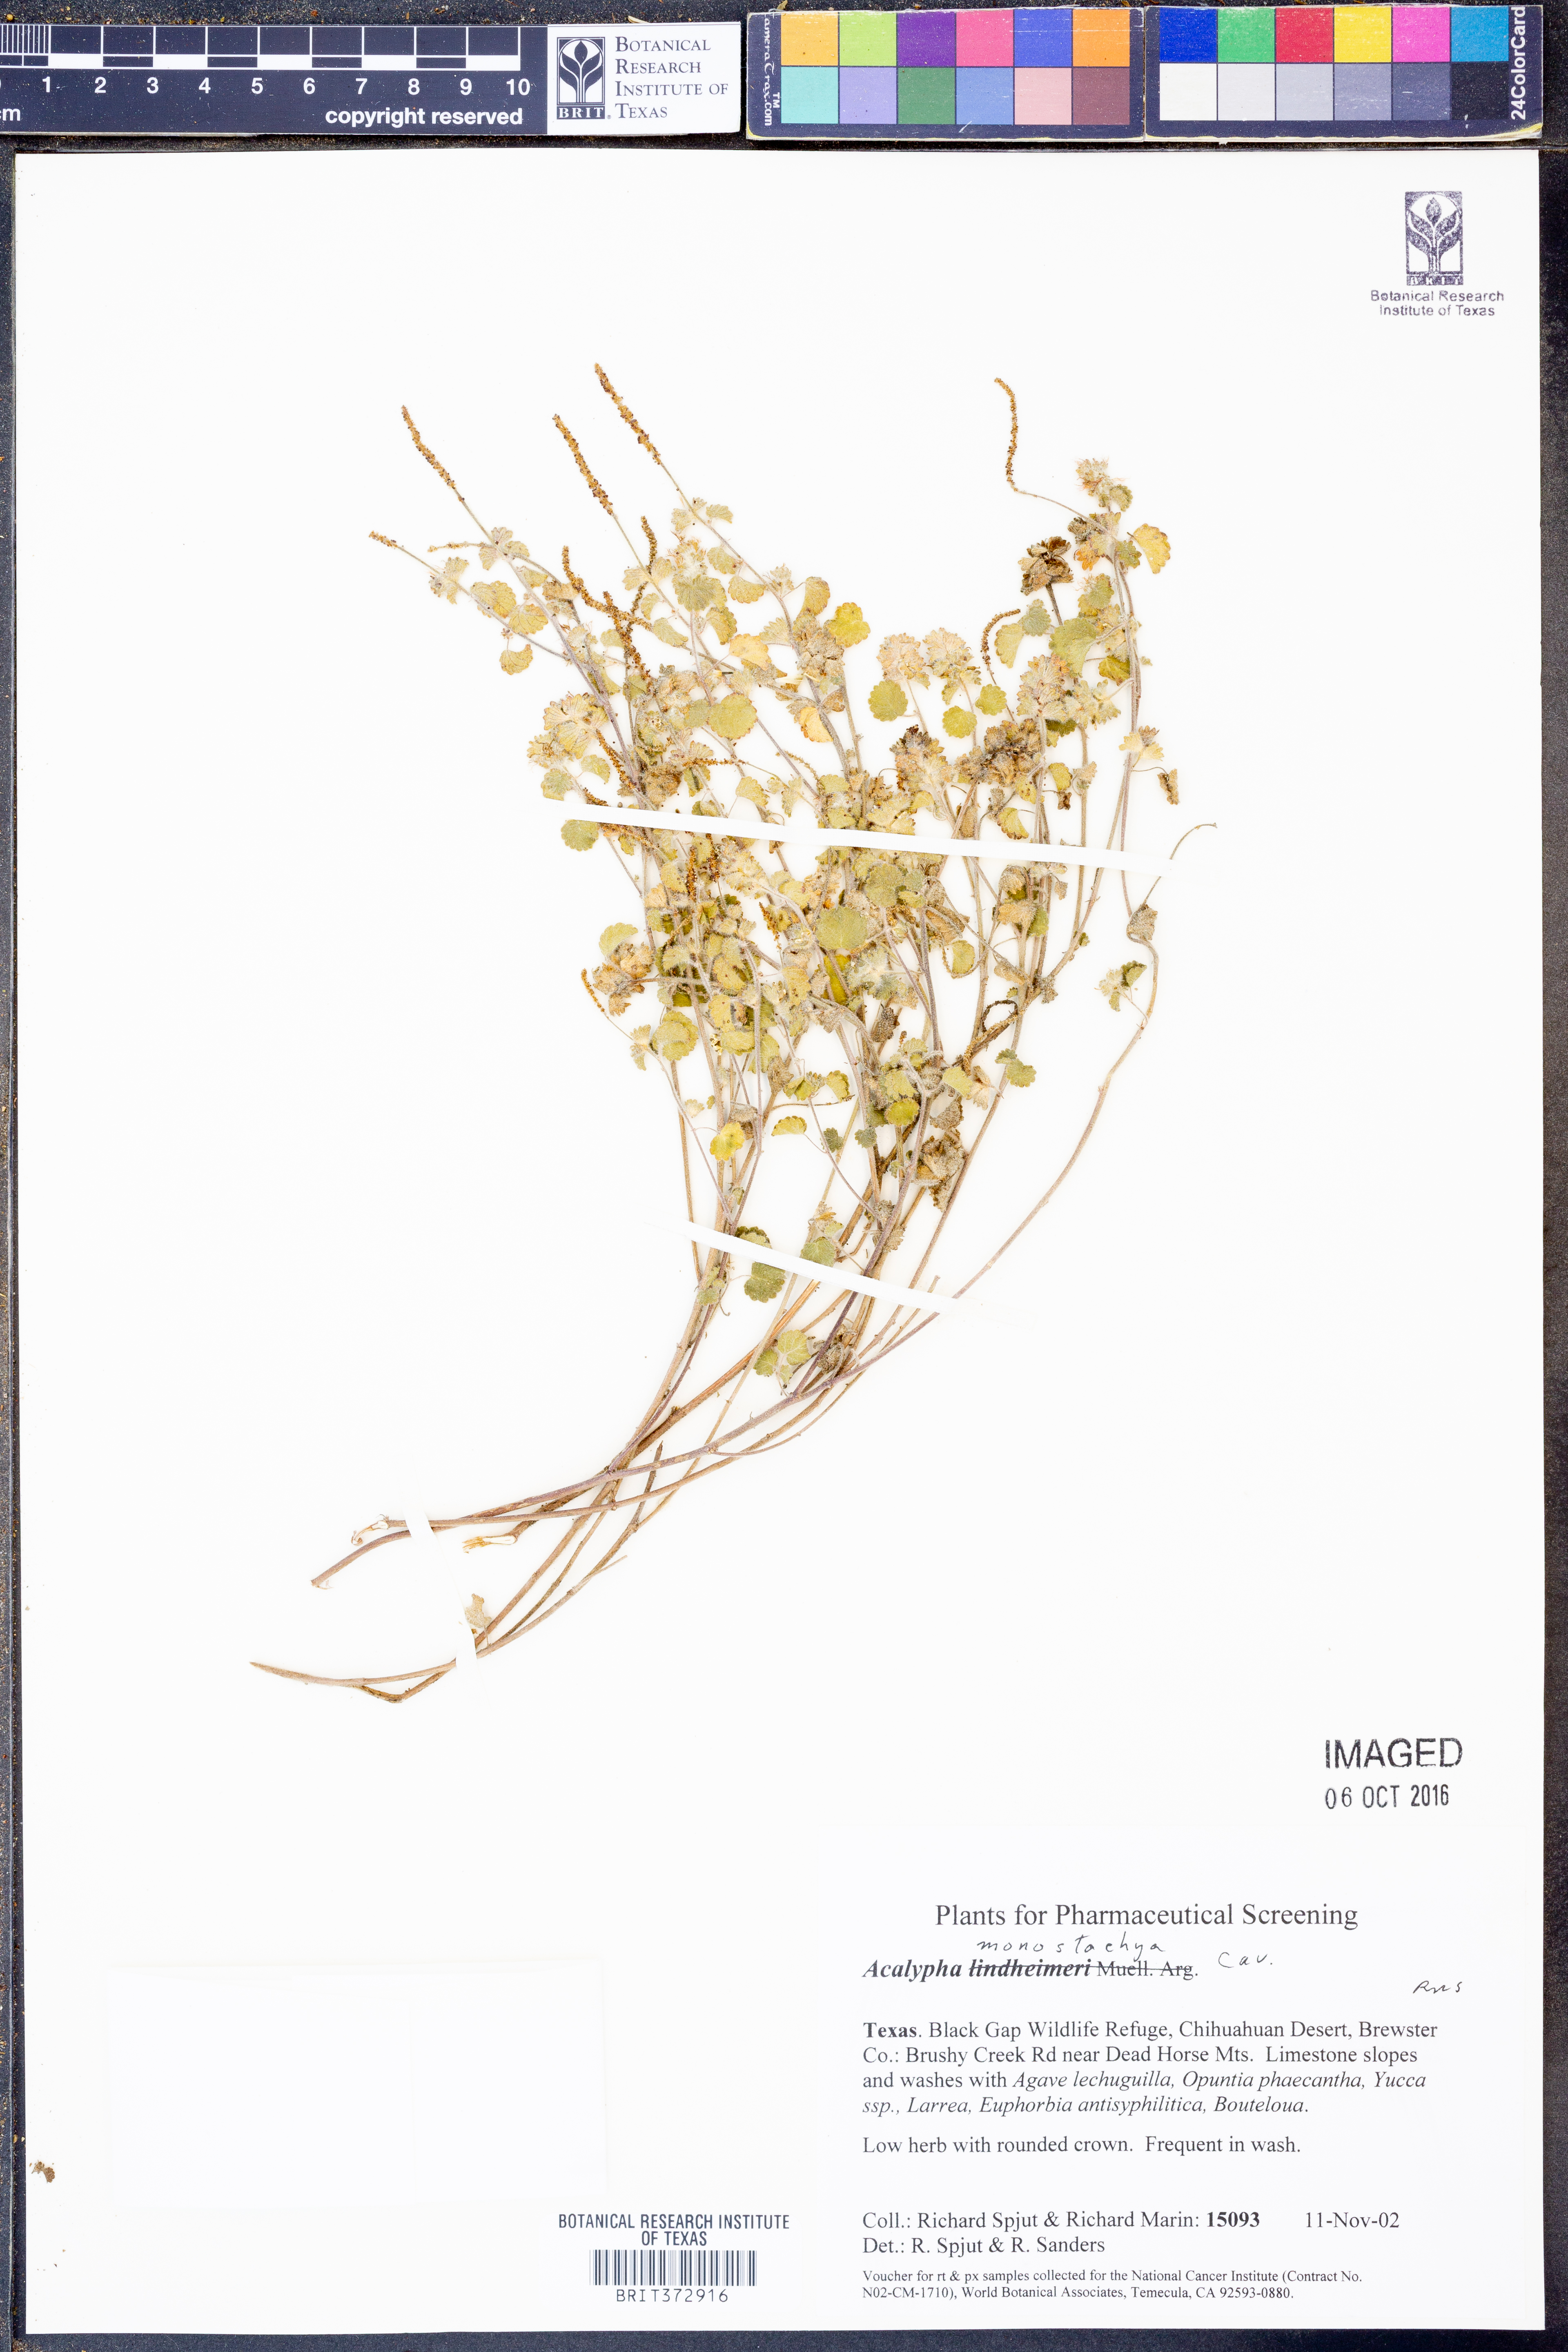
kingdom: Plantae
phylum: Tracheophyta
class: Magnoliopsida
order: Malpighiales
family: Euphorbiaceae
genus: Acalypha
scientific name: Acalypha monostachya
